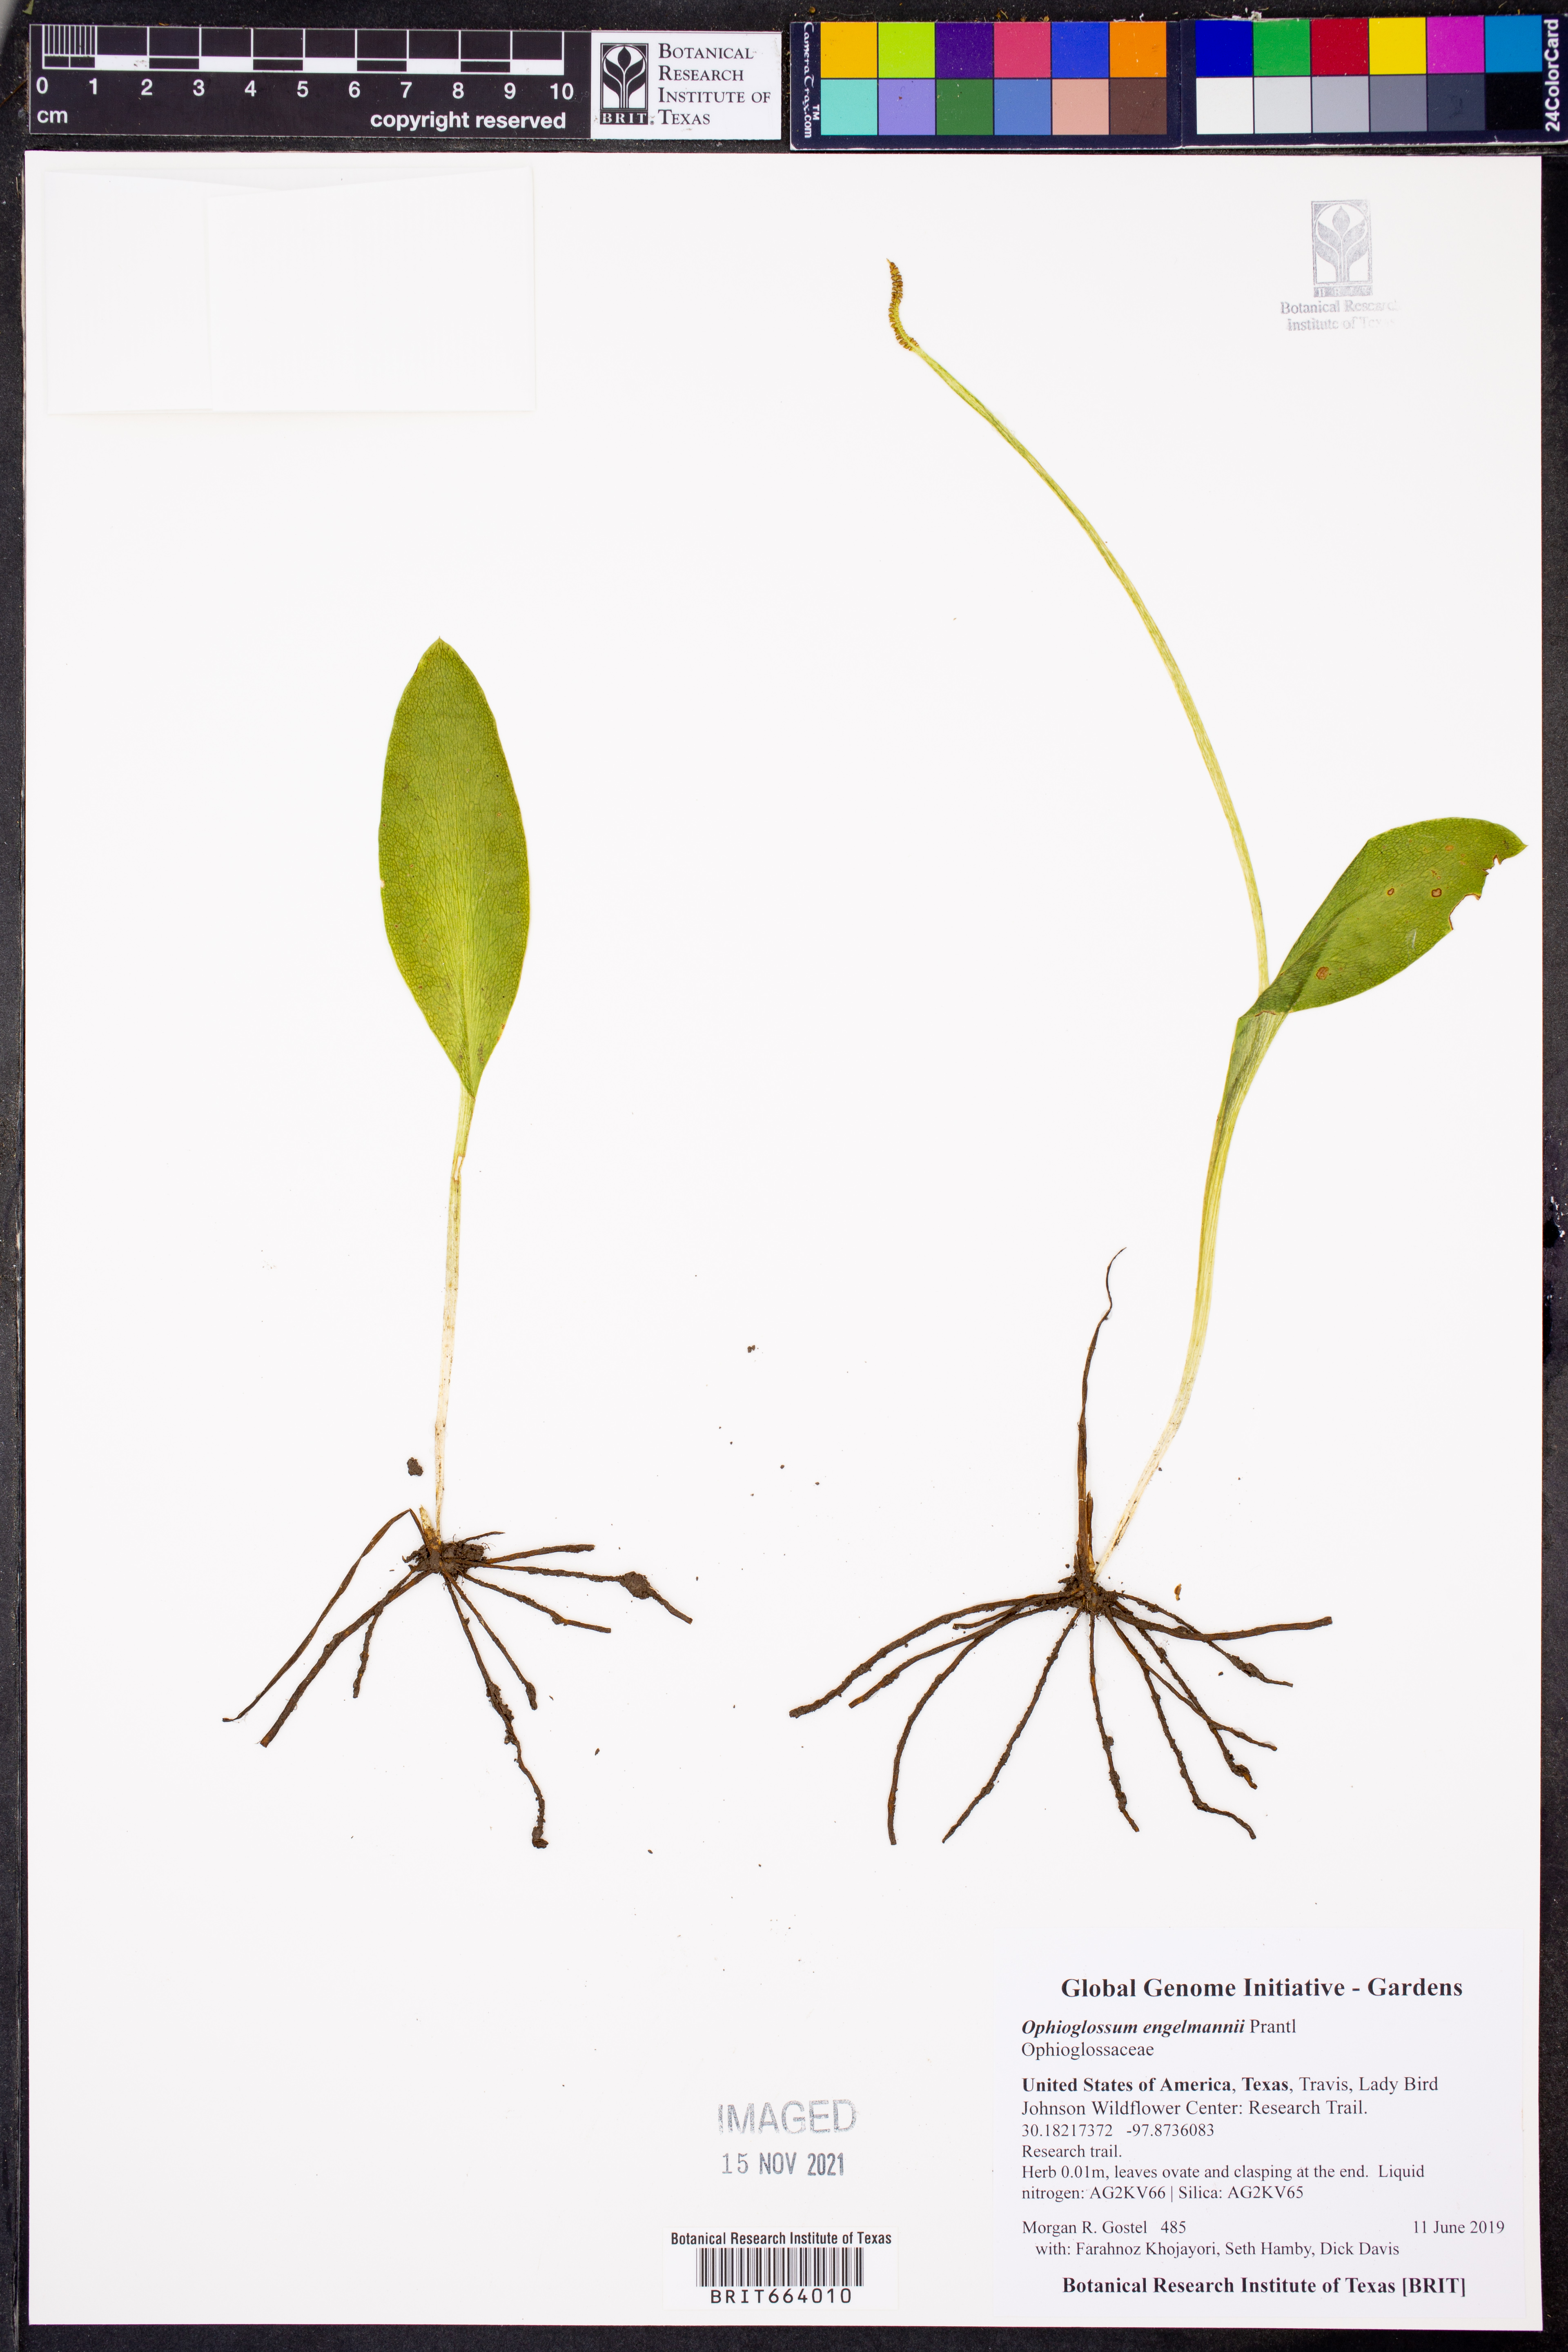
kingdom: Plantae
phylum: Tracheophyta
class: Polypodiopsida
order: Ophioglossales
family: Ophioglossaceae
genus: Ophioglossum
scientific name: Ophioglossum engelmannii
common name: Limestone adder's-tongue
